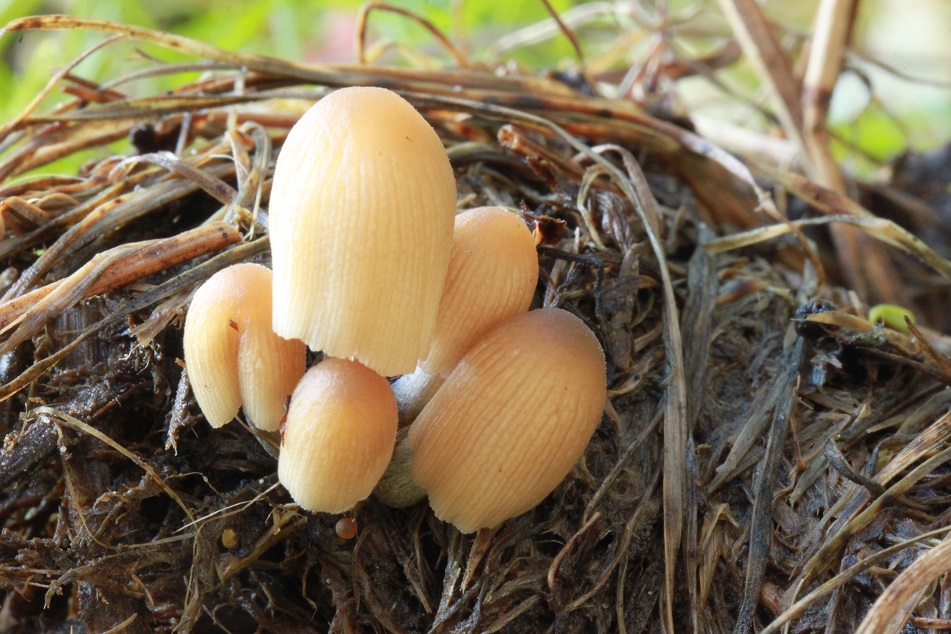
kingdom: Fungi
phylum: Basidiomycota
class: Agaricomycetes
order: Agaricales
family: Psathyrellaceae
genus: Tulosesus
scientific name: Tulosesus bisporus
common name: tosporet blækhat
